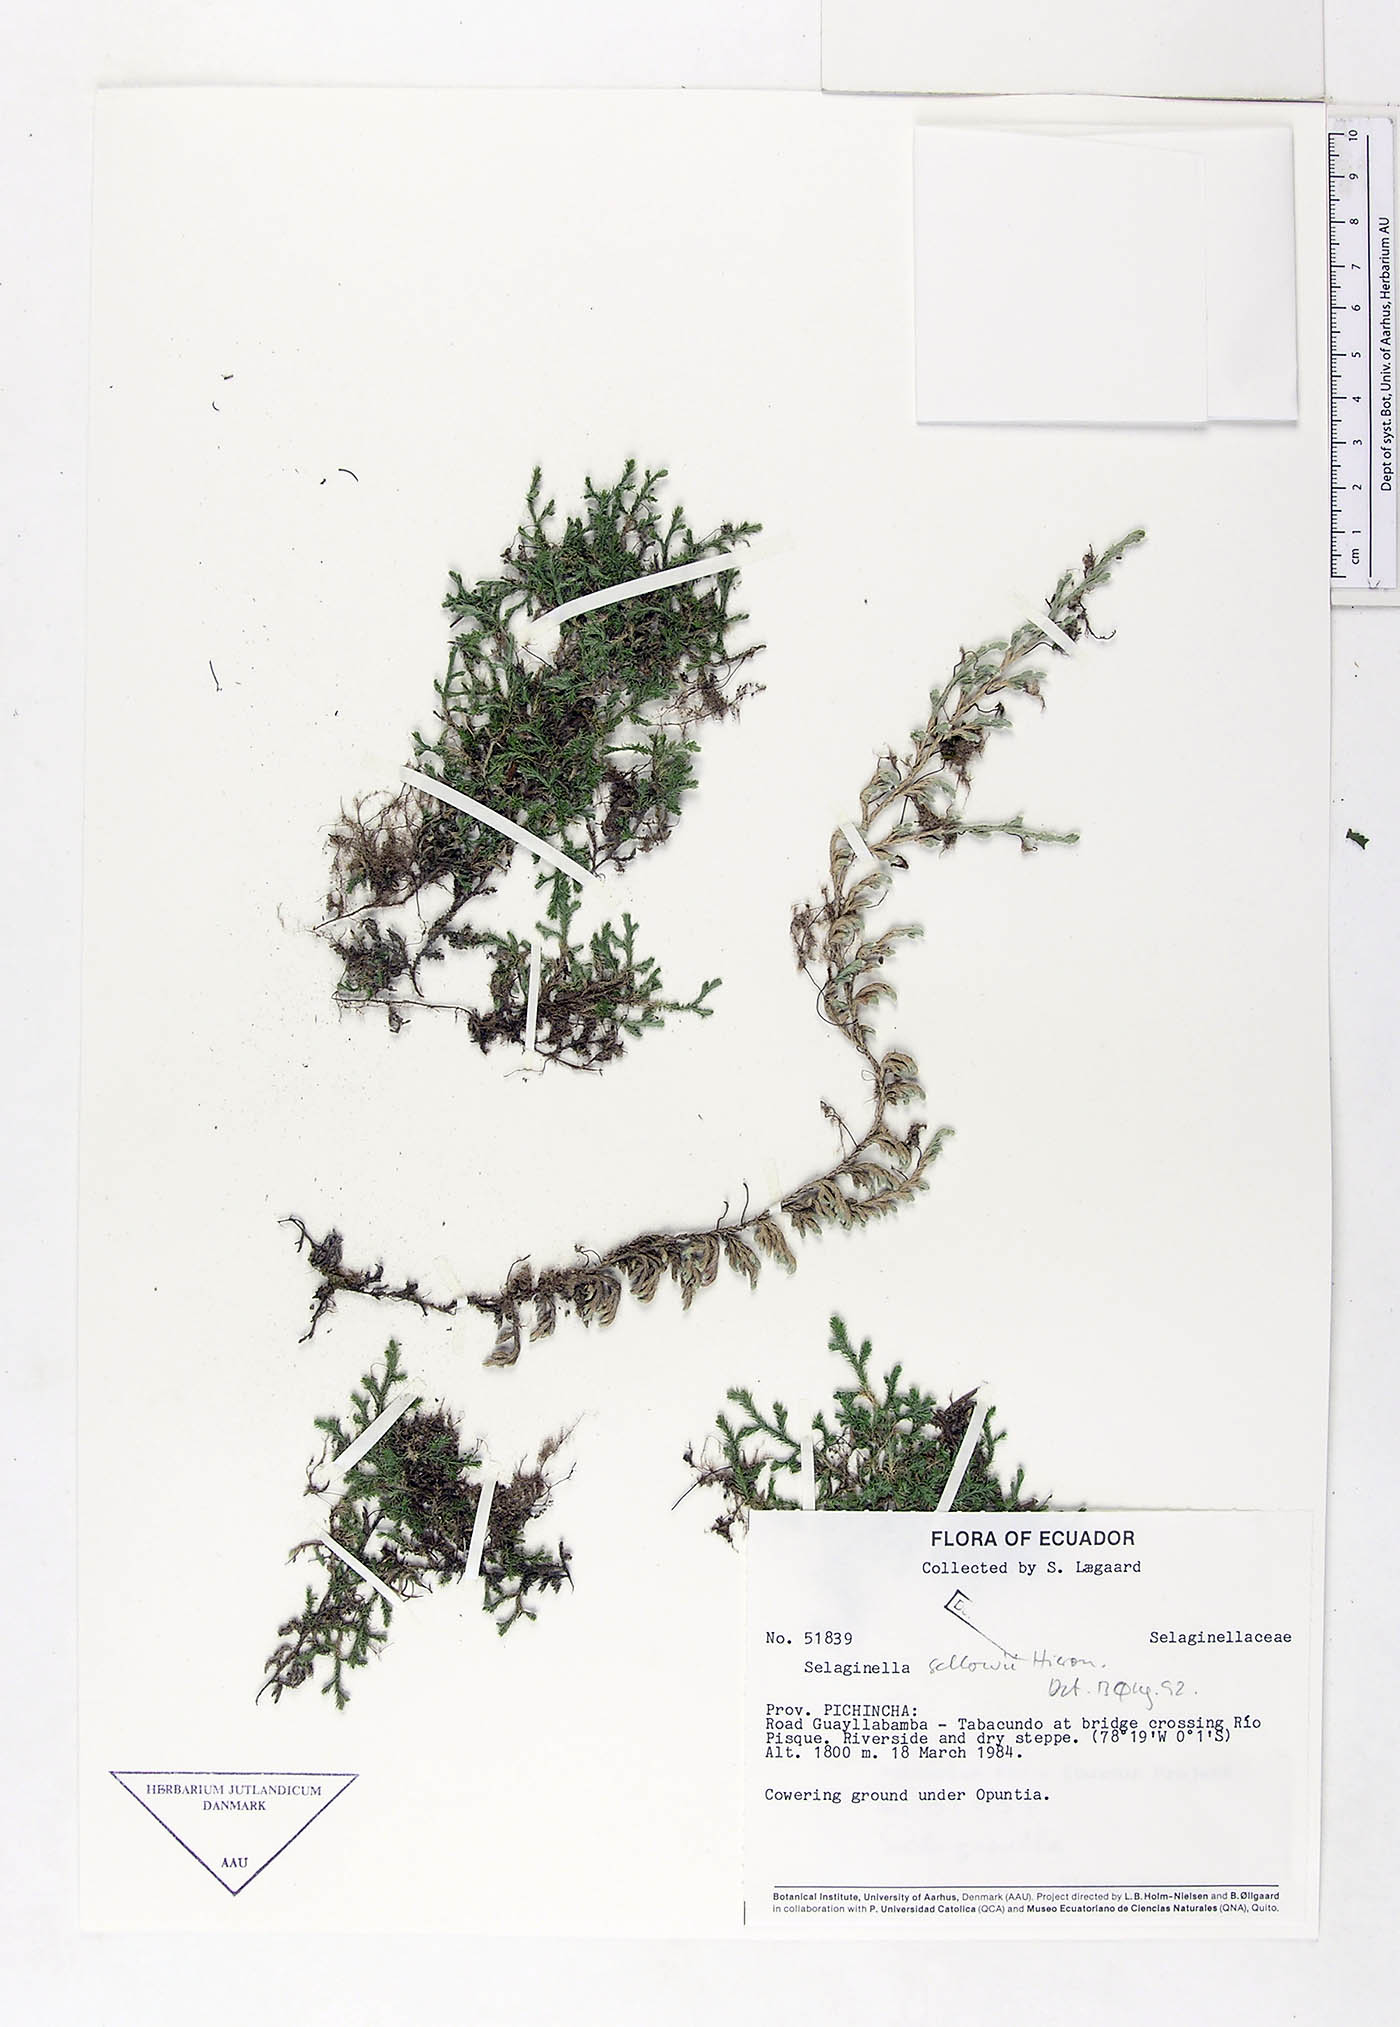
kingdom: Plantae
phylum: Tracheophyta
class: Lycopodiopsida
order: Selaginellales
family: Selaginellaceae
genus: Selaginella
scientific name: Selaginella sellowii
